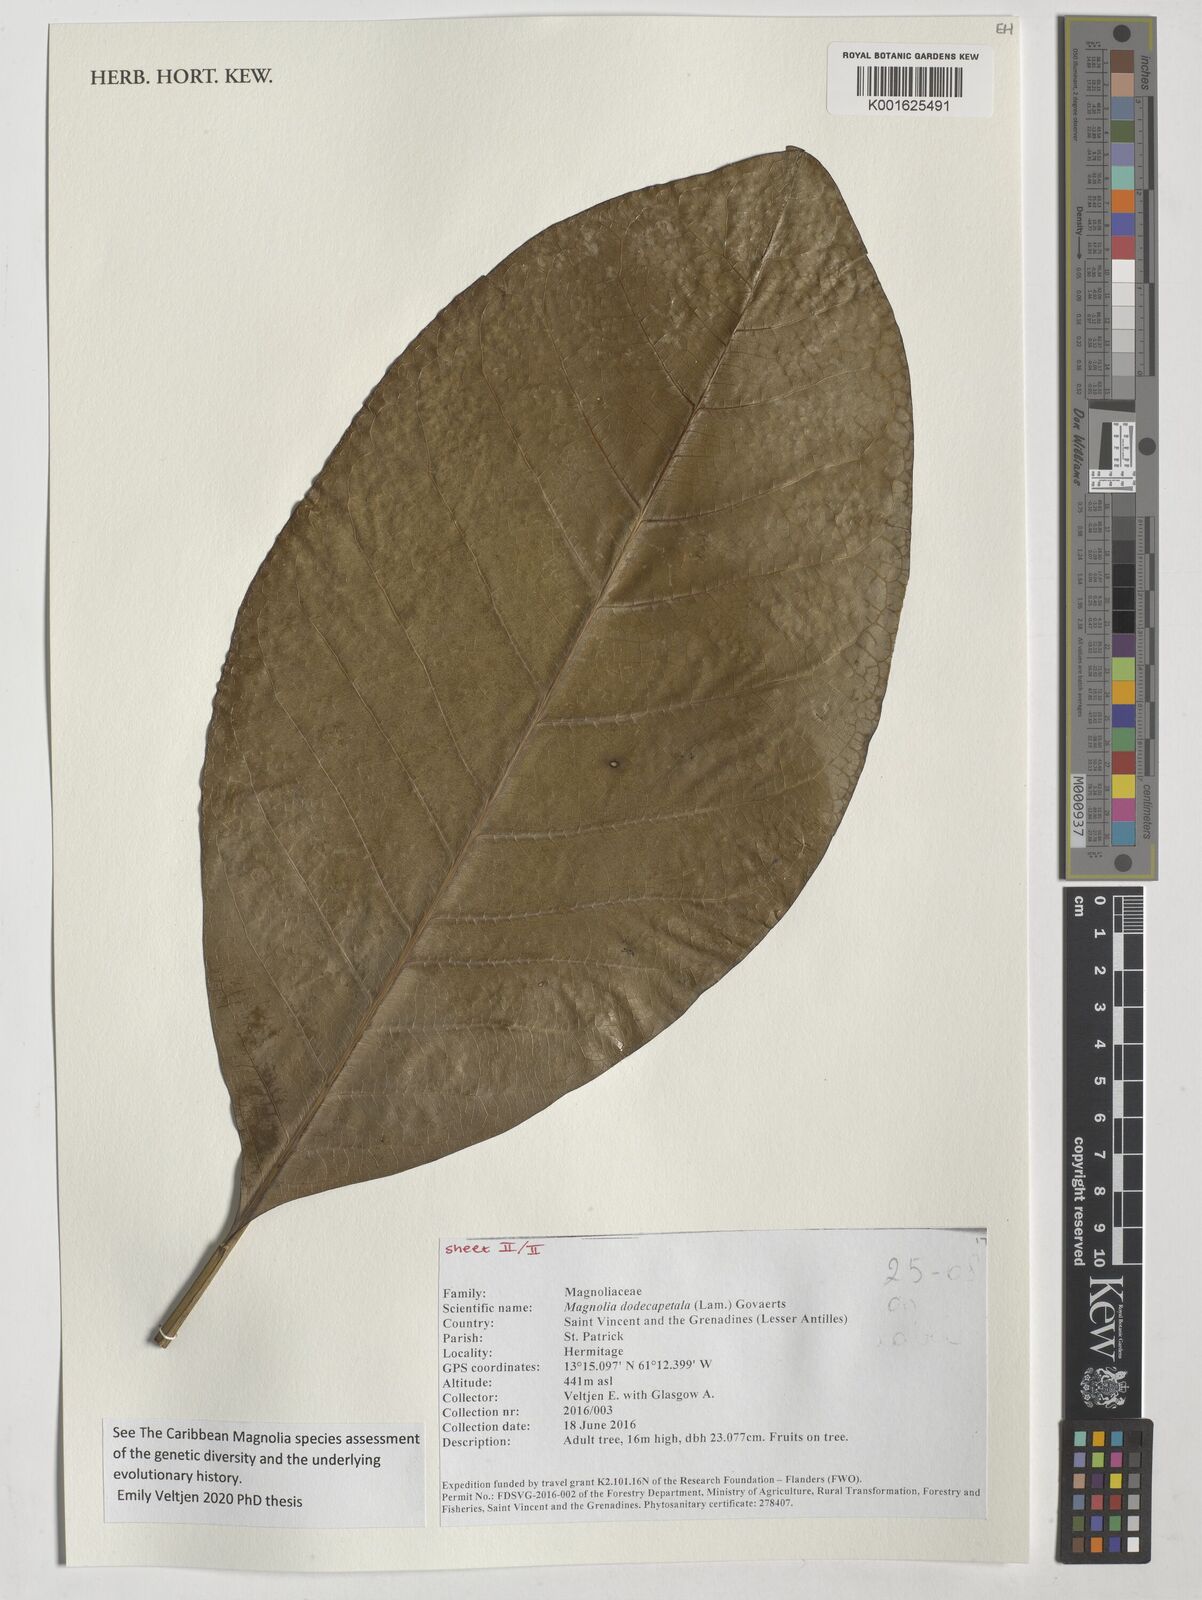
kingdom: Plantae
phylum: Tracheophyta
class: Magnoliopsida
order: Magnoliales
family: Magnoliaceae
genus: Magnolia
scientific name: Magnolia dodecapetala
